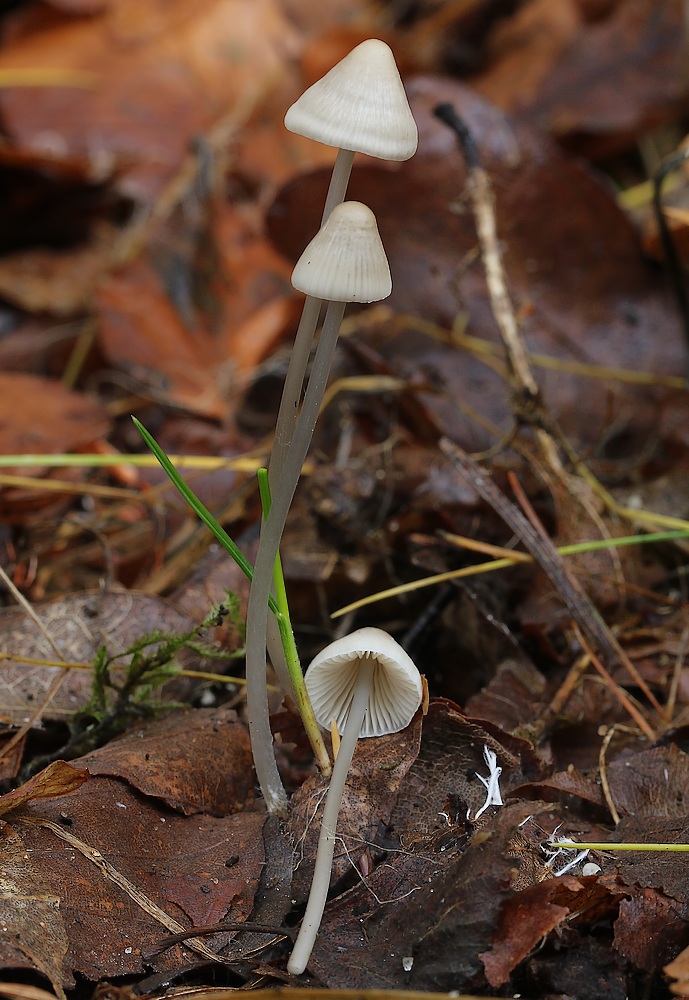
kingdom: Fungi
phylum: Basidiomycota
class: Agaricomycetes
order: Agaricales
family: Mycenaceae
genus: Mycena
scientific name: Mycena
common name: huesvamp
